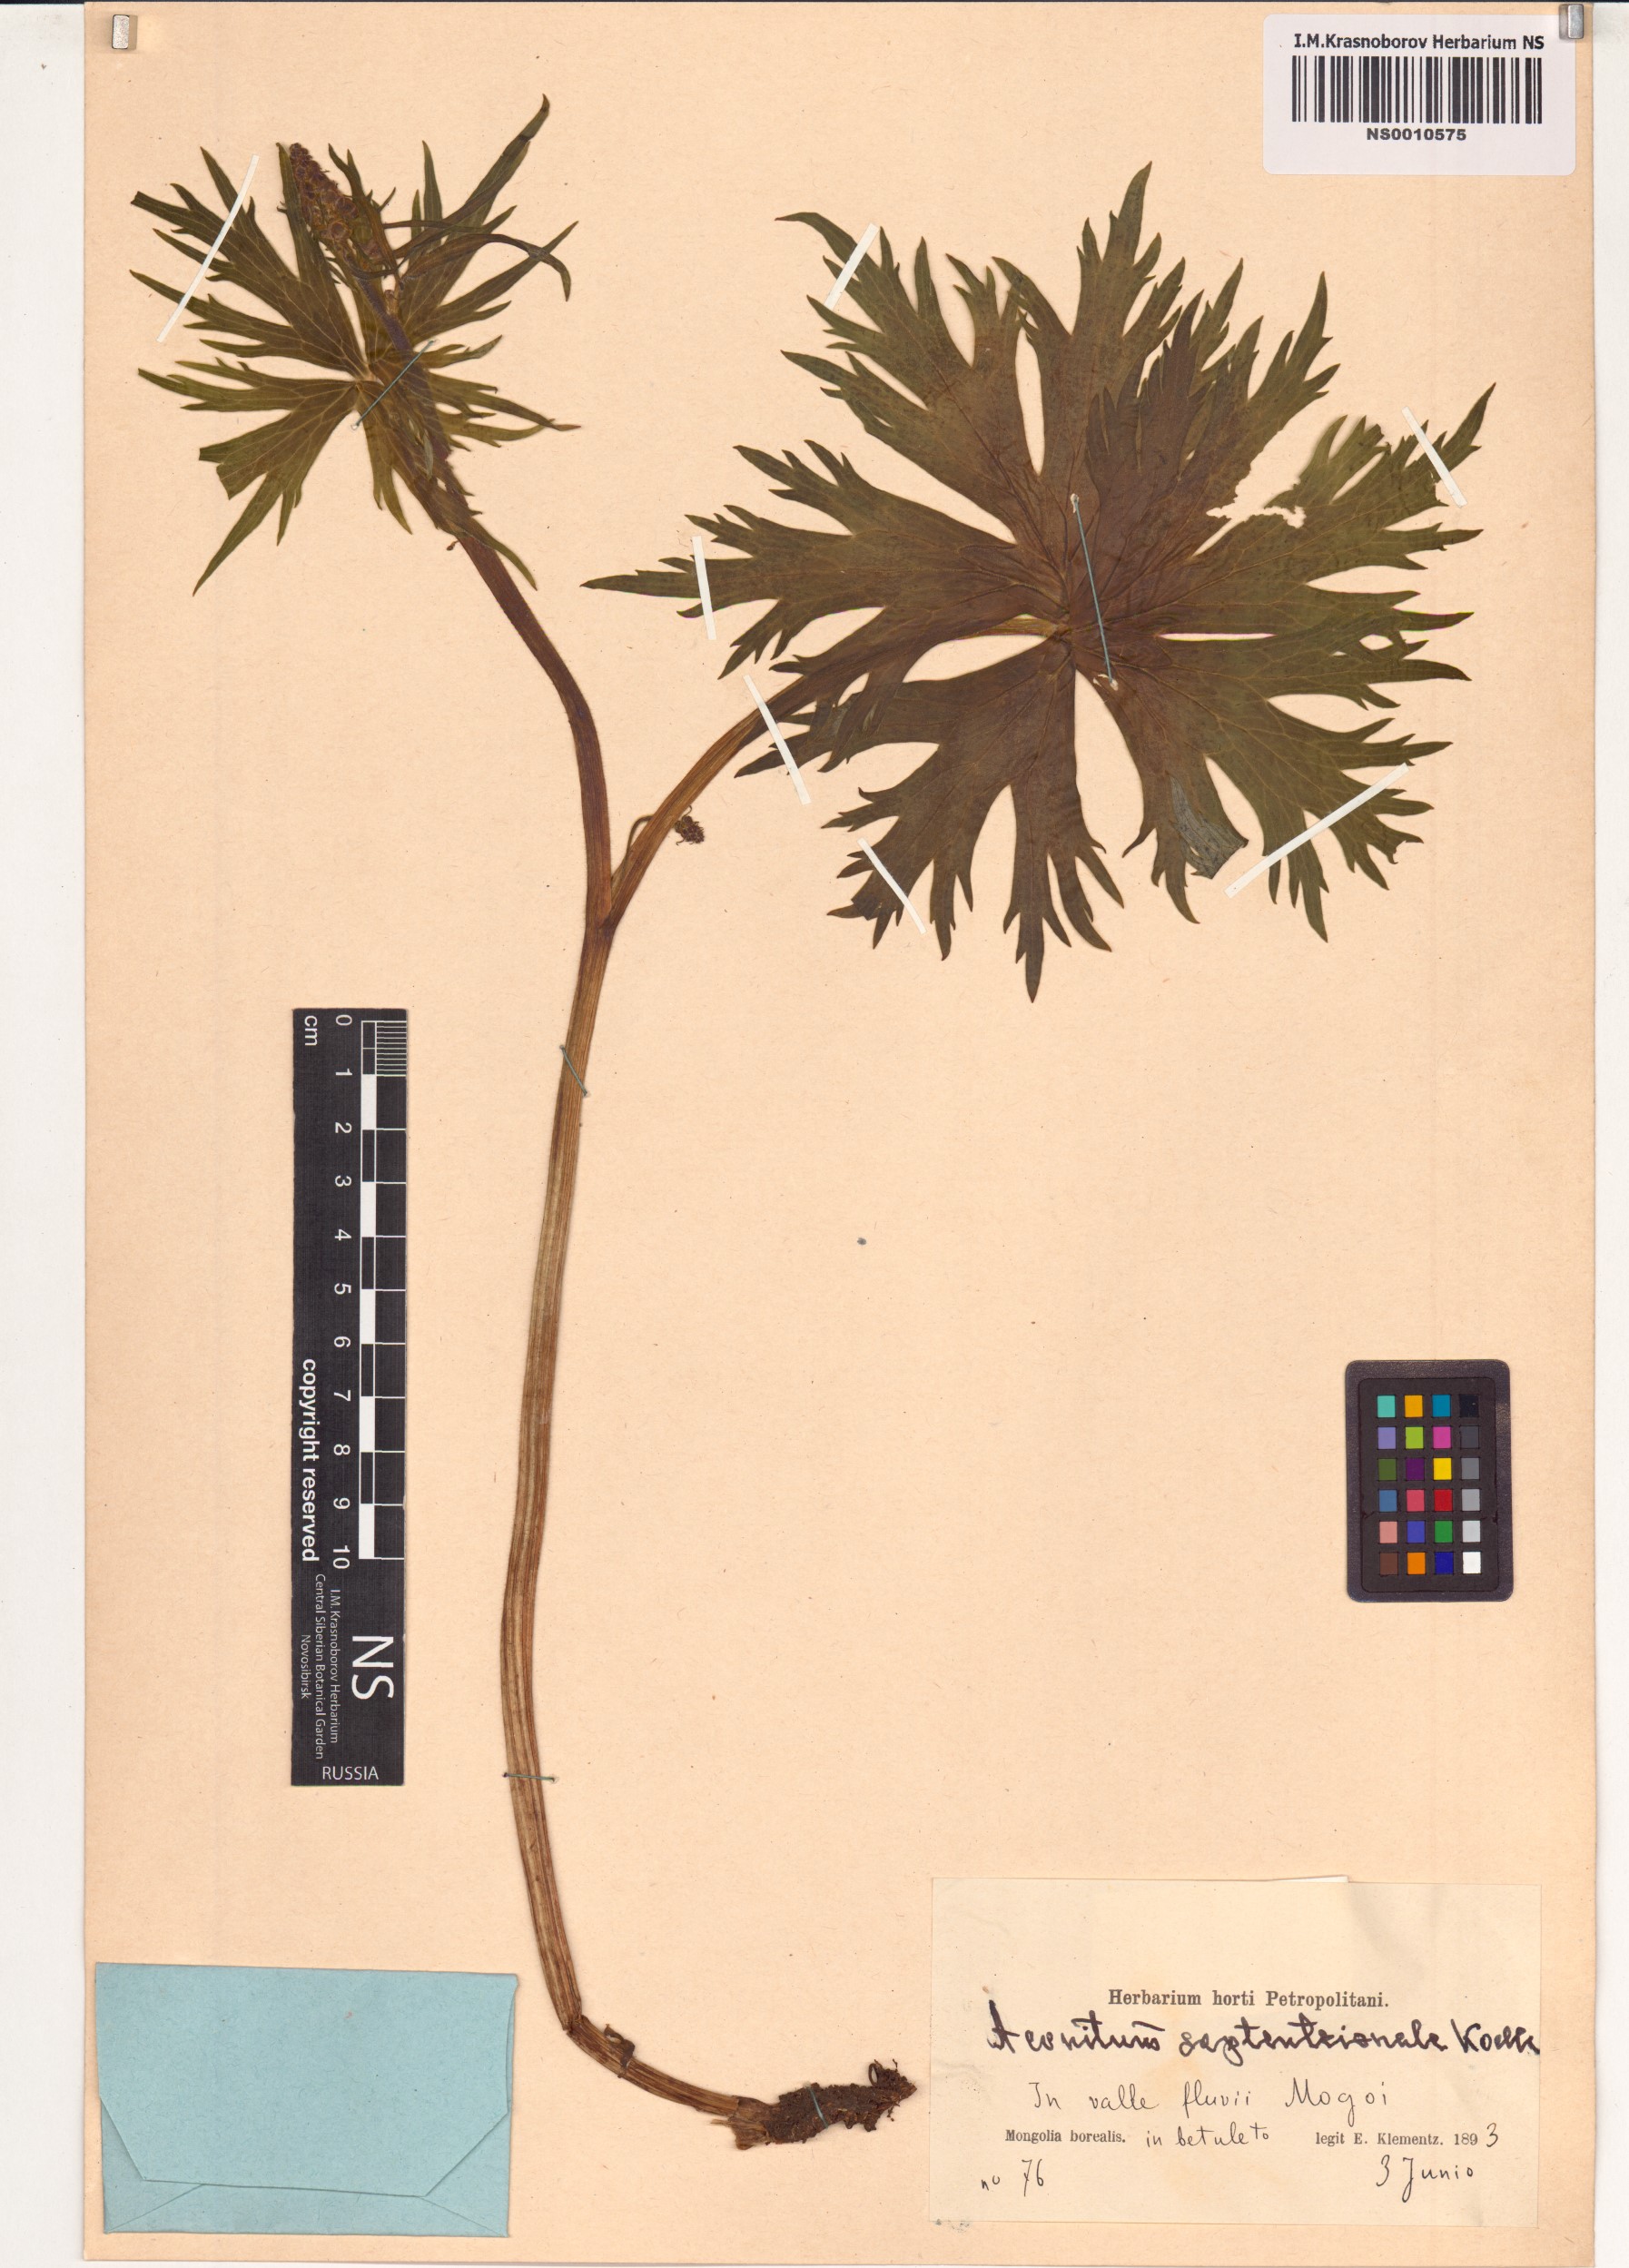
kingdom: Plantae
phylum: Tracheophyta
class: Magnoliopsida
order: Ranunculales
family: Ranunculaceae
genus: Aconitum
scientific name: Aconitum septentrionale
